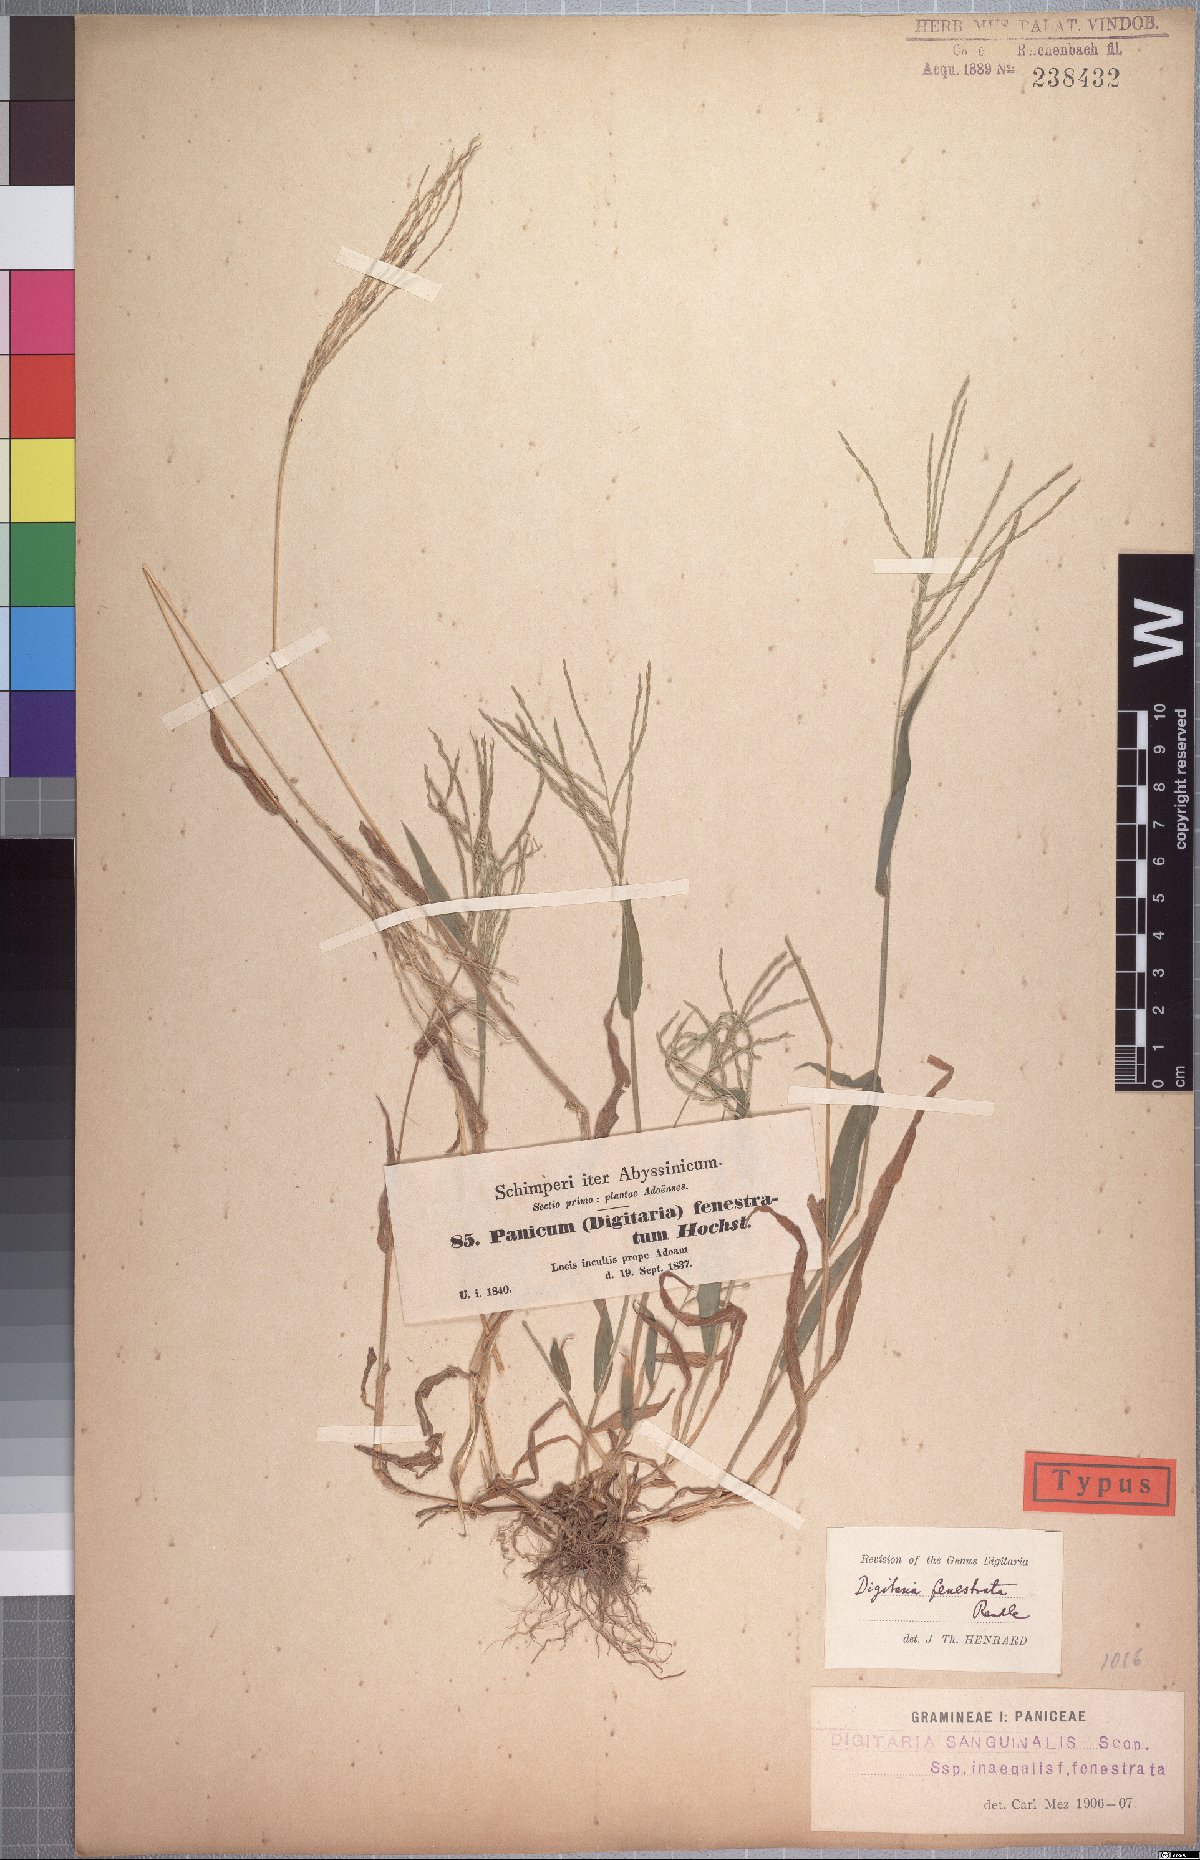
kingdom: Plantae
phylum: Tracheophyta
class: Liliopsida
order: Poales
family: Poaceae
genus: Digitaria
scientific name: Digitaria velutina
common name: Long-plume finger grass
